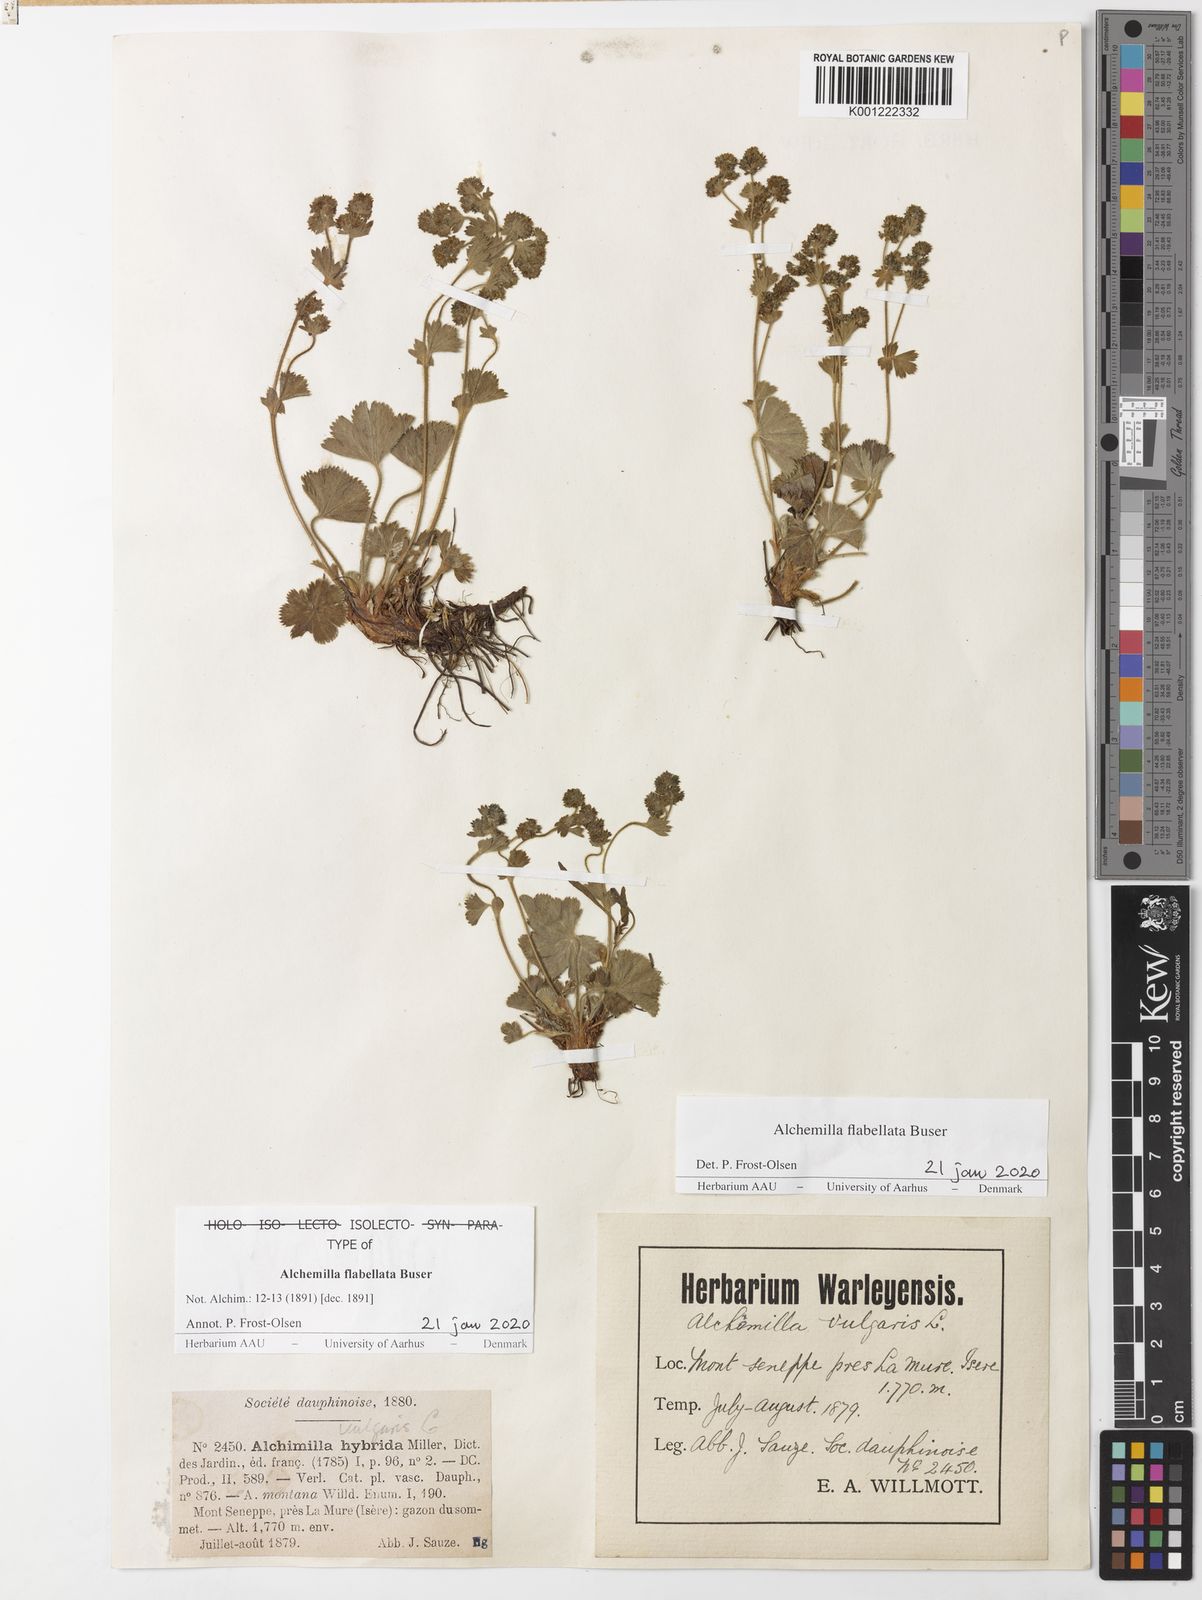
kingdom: Plantae
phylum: Tracheophyta
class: Magnoliopsida
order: Rosales
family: Rosaceae
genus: Alchemilla
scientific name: Alchemilla flabellata
